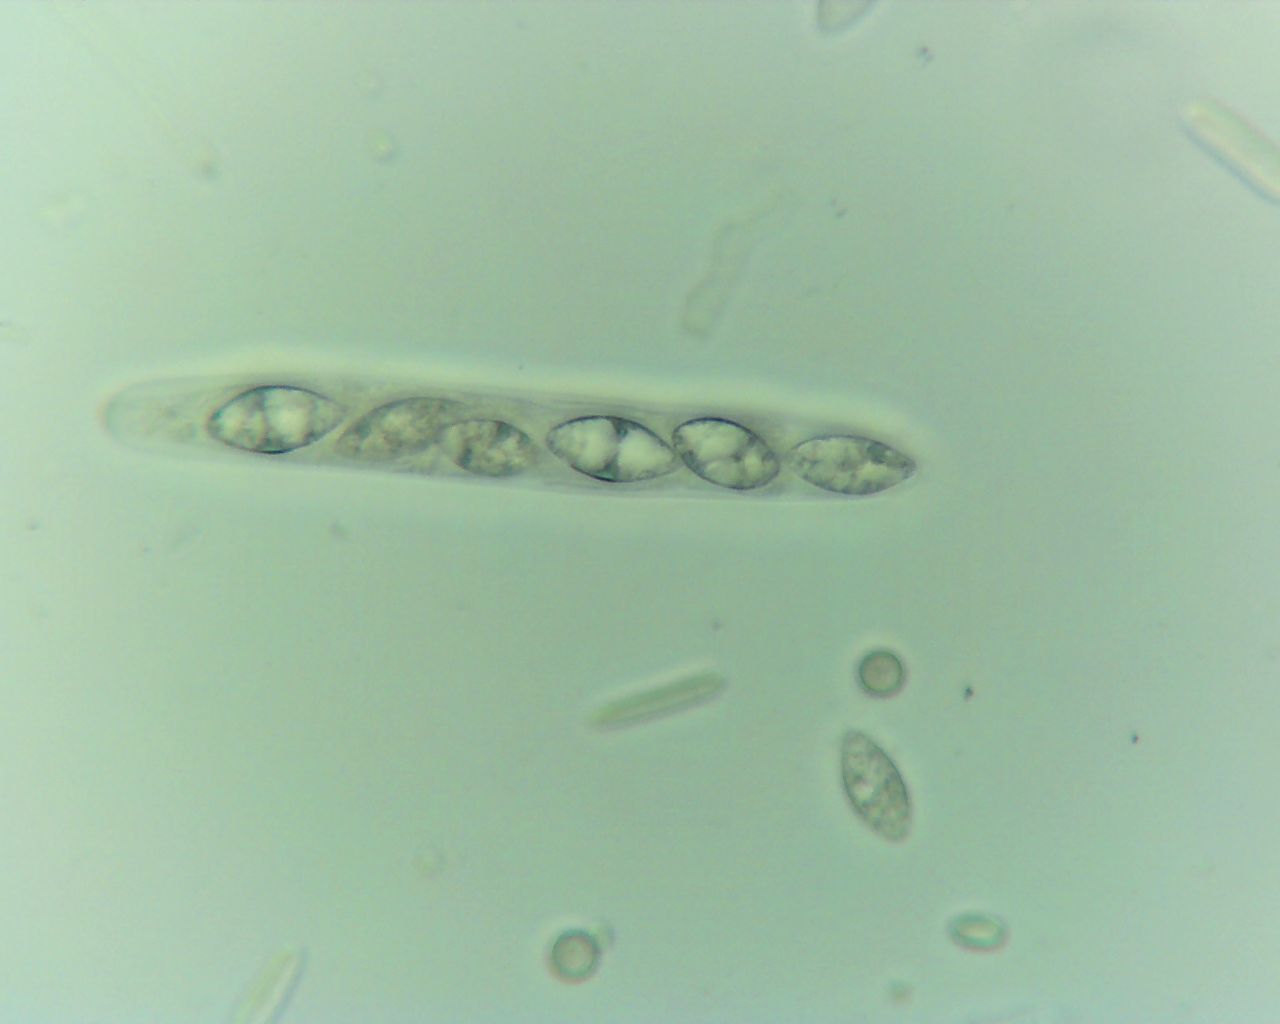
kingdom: Fungi
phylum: Ascomycota
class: Sordariomycetes
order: Xylariales
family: Xylariaceae
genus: Podosordaria
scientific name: Podosordaria tulasnei
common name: gødnings-stødsvamp
